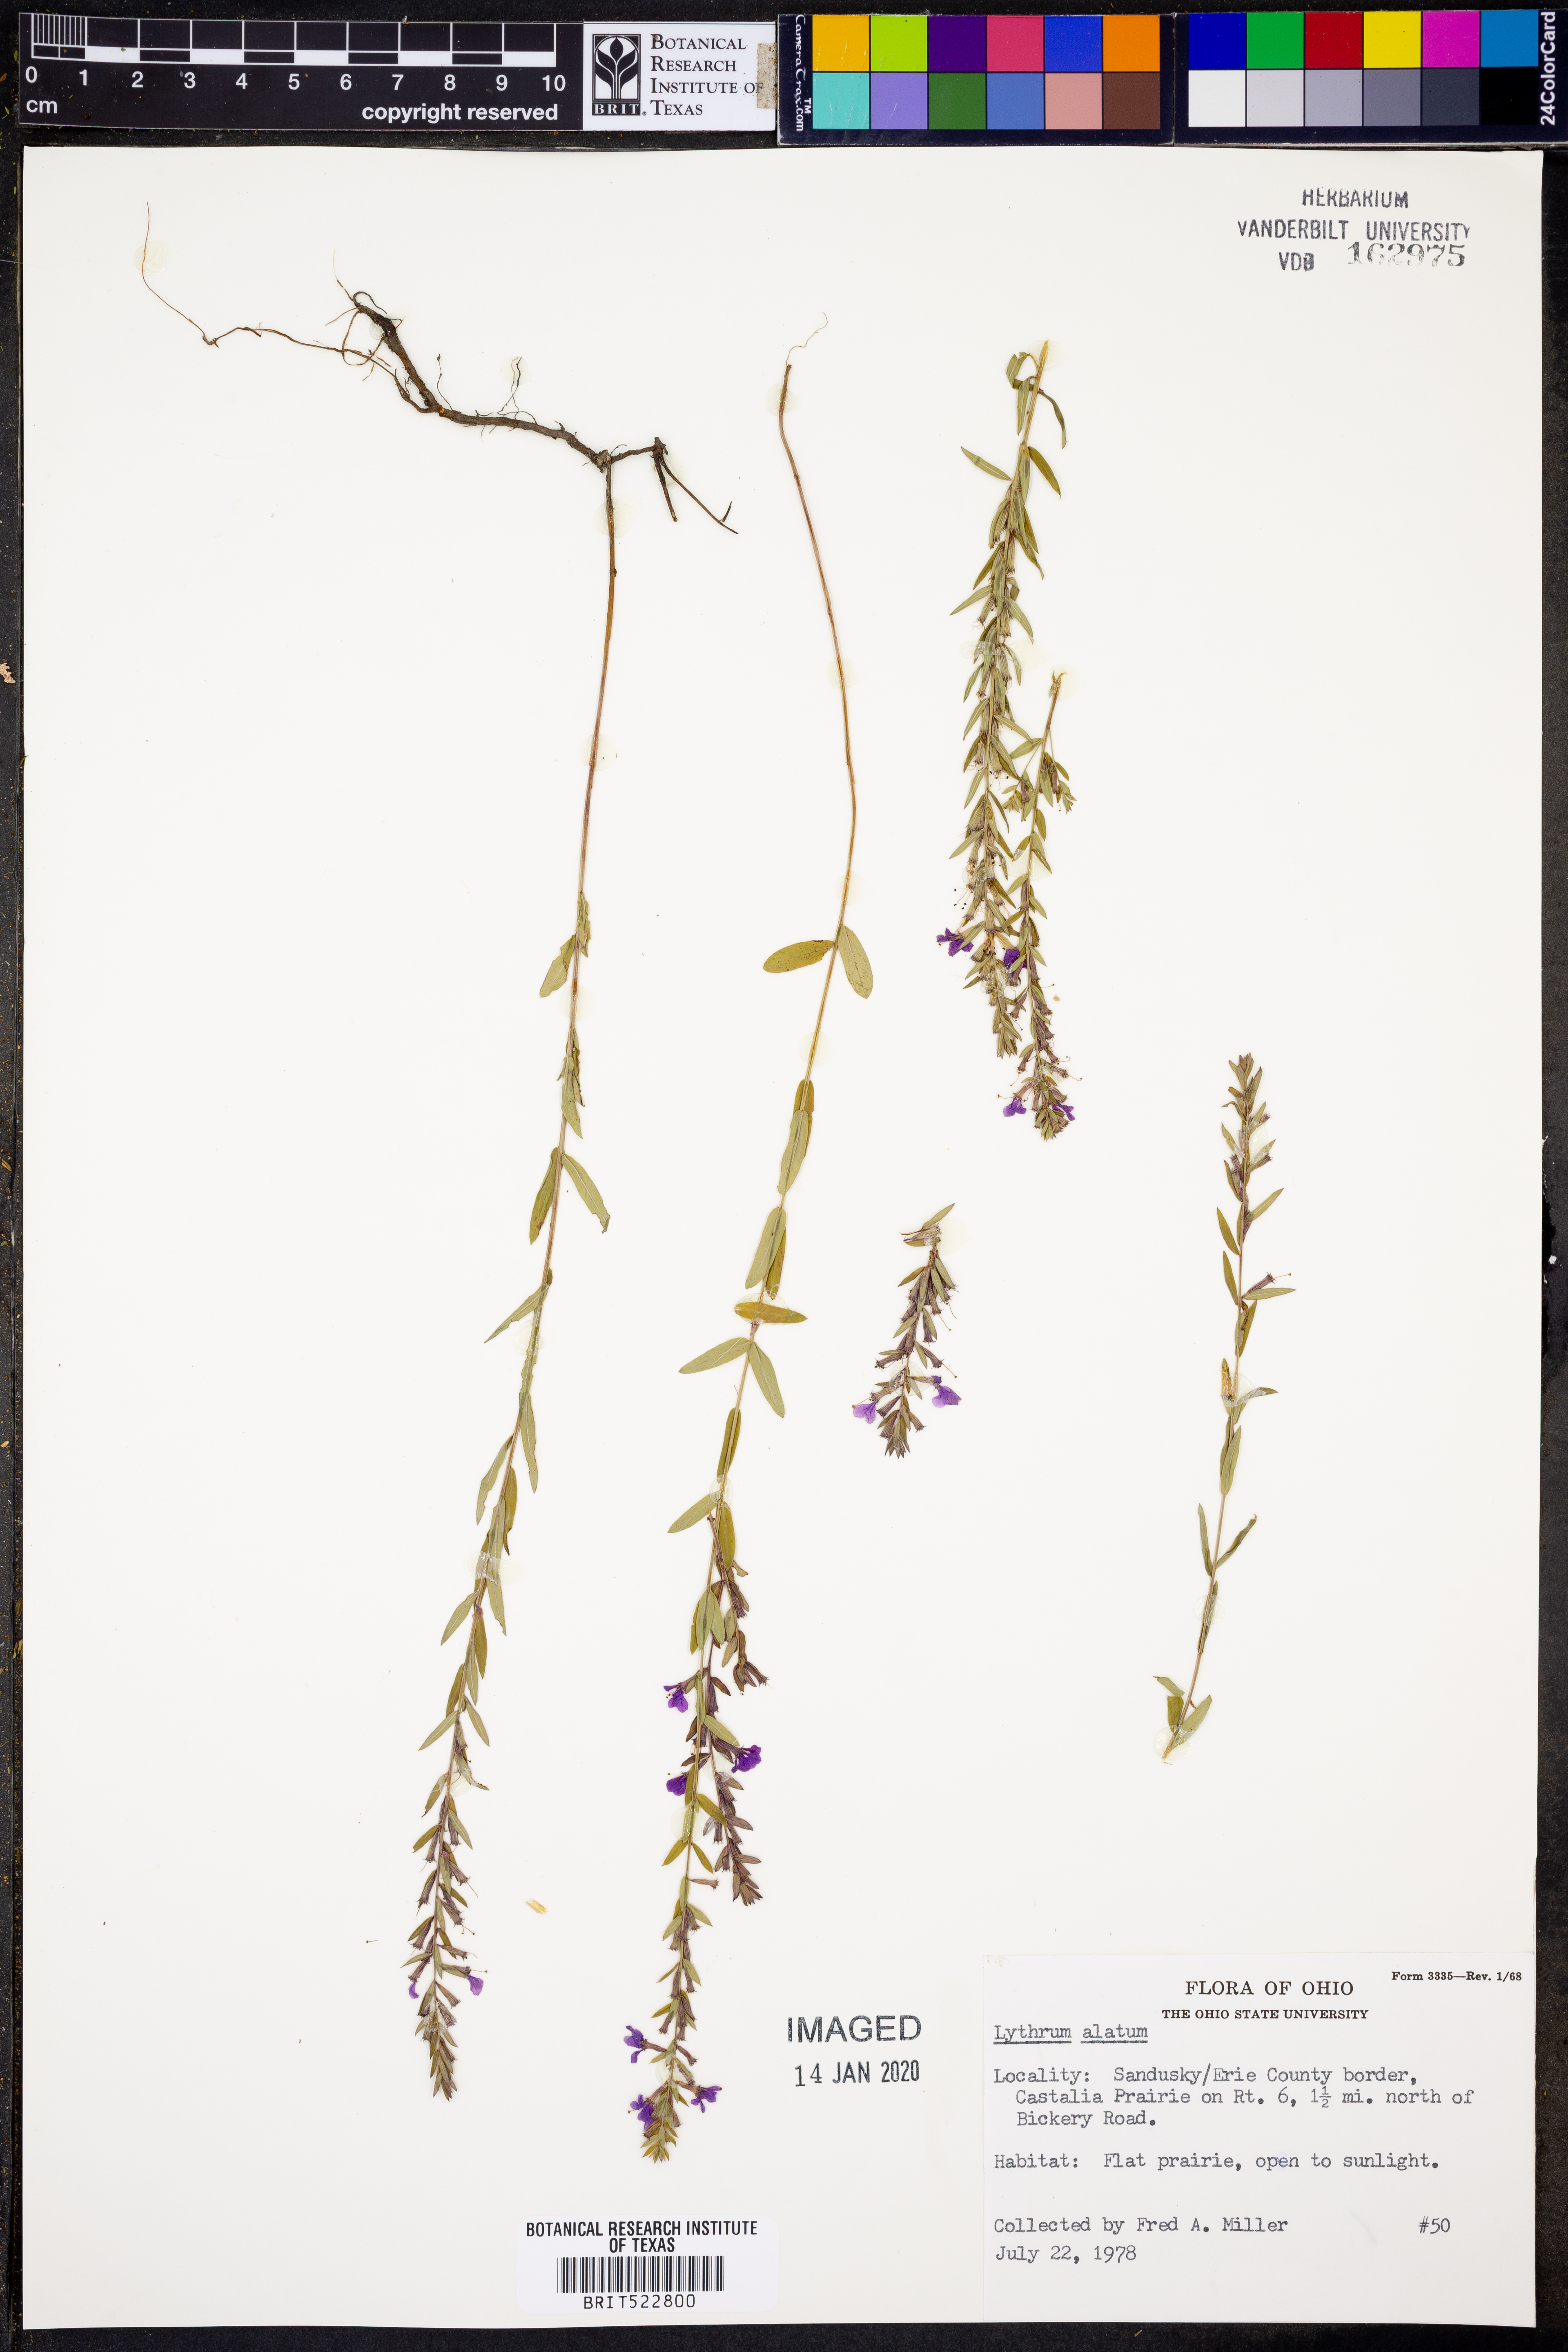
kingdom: Plantae
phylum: Tracheophyta
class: Magnoliopsida
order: Myrtales
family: Lythraceae
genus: Lythrum
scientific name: Lythrum alatum
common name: Winged loosestrife
